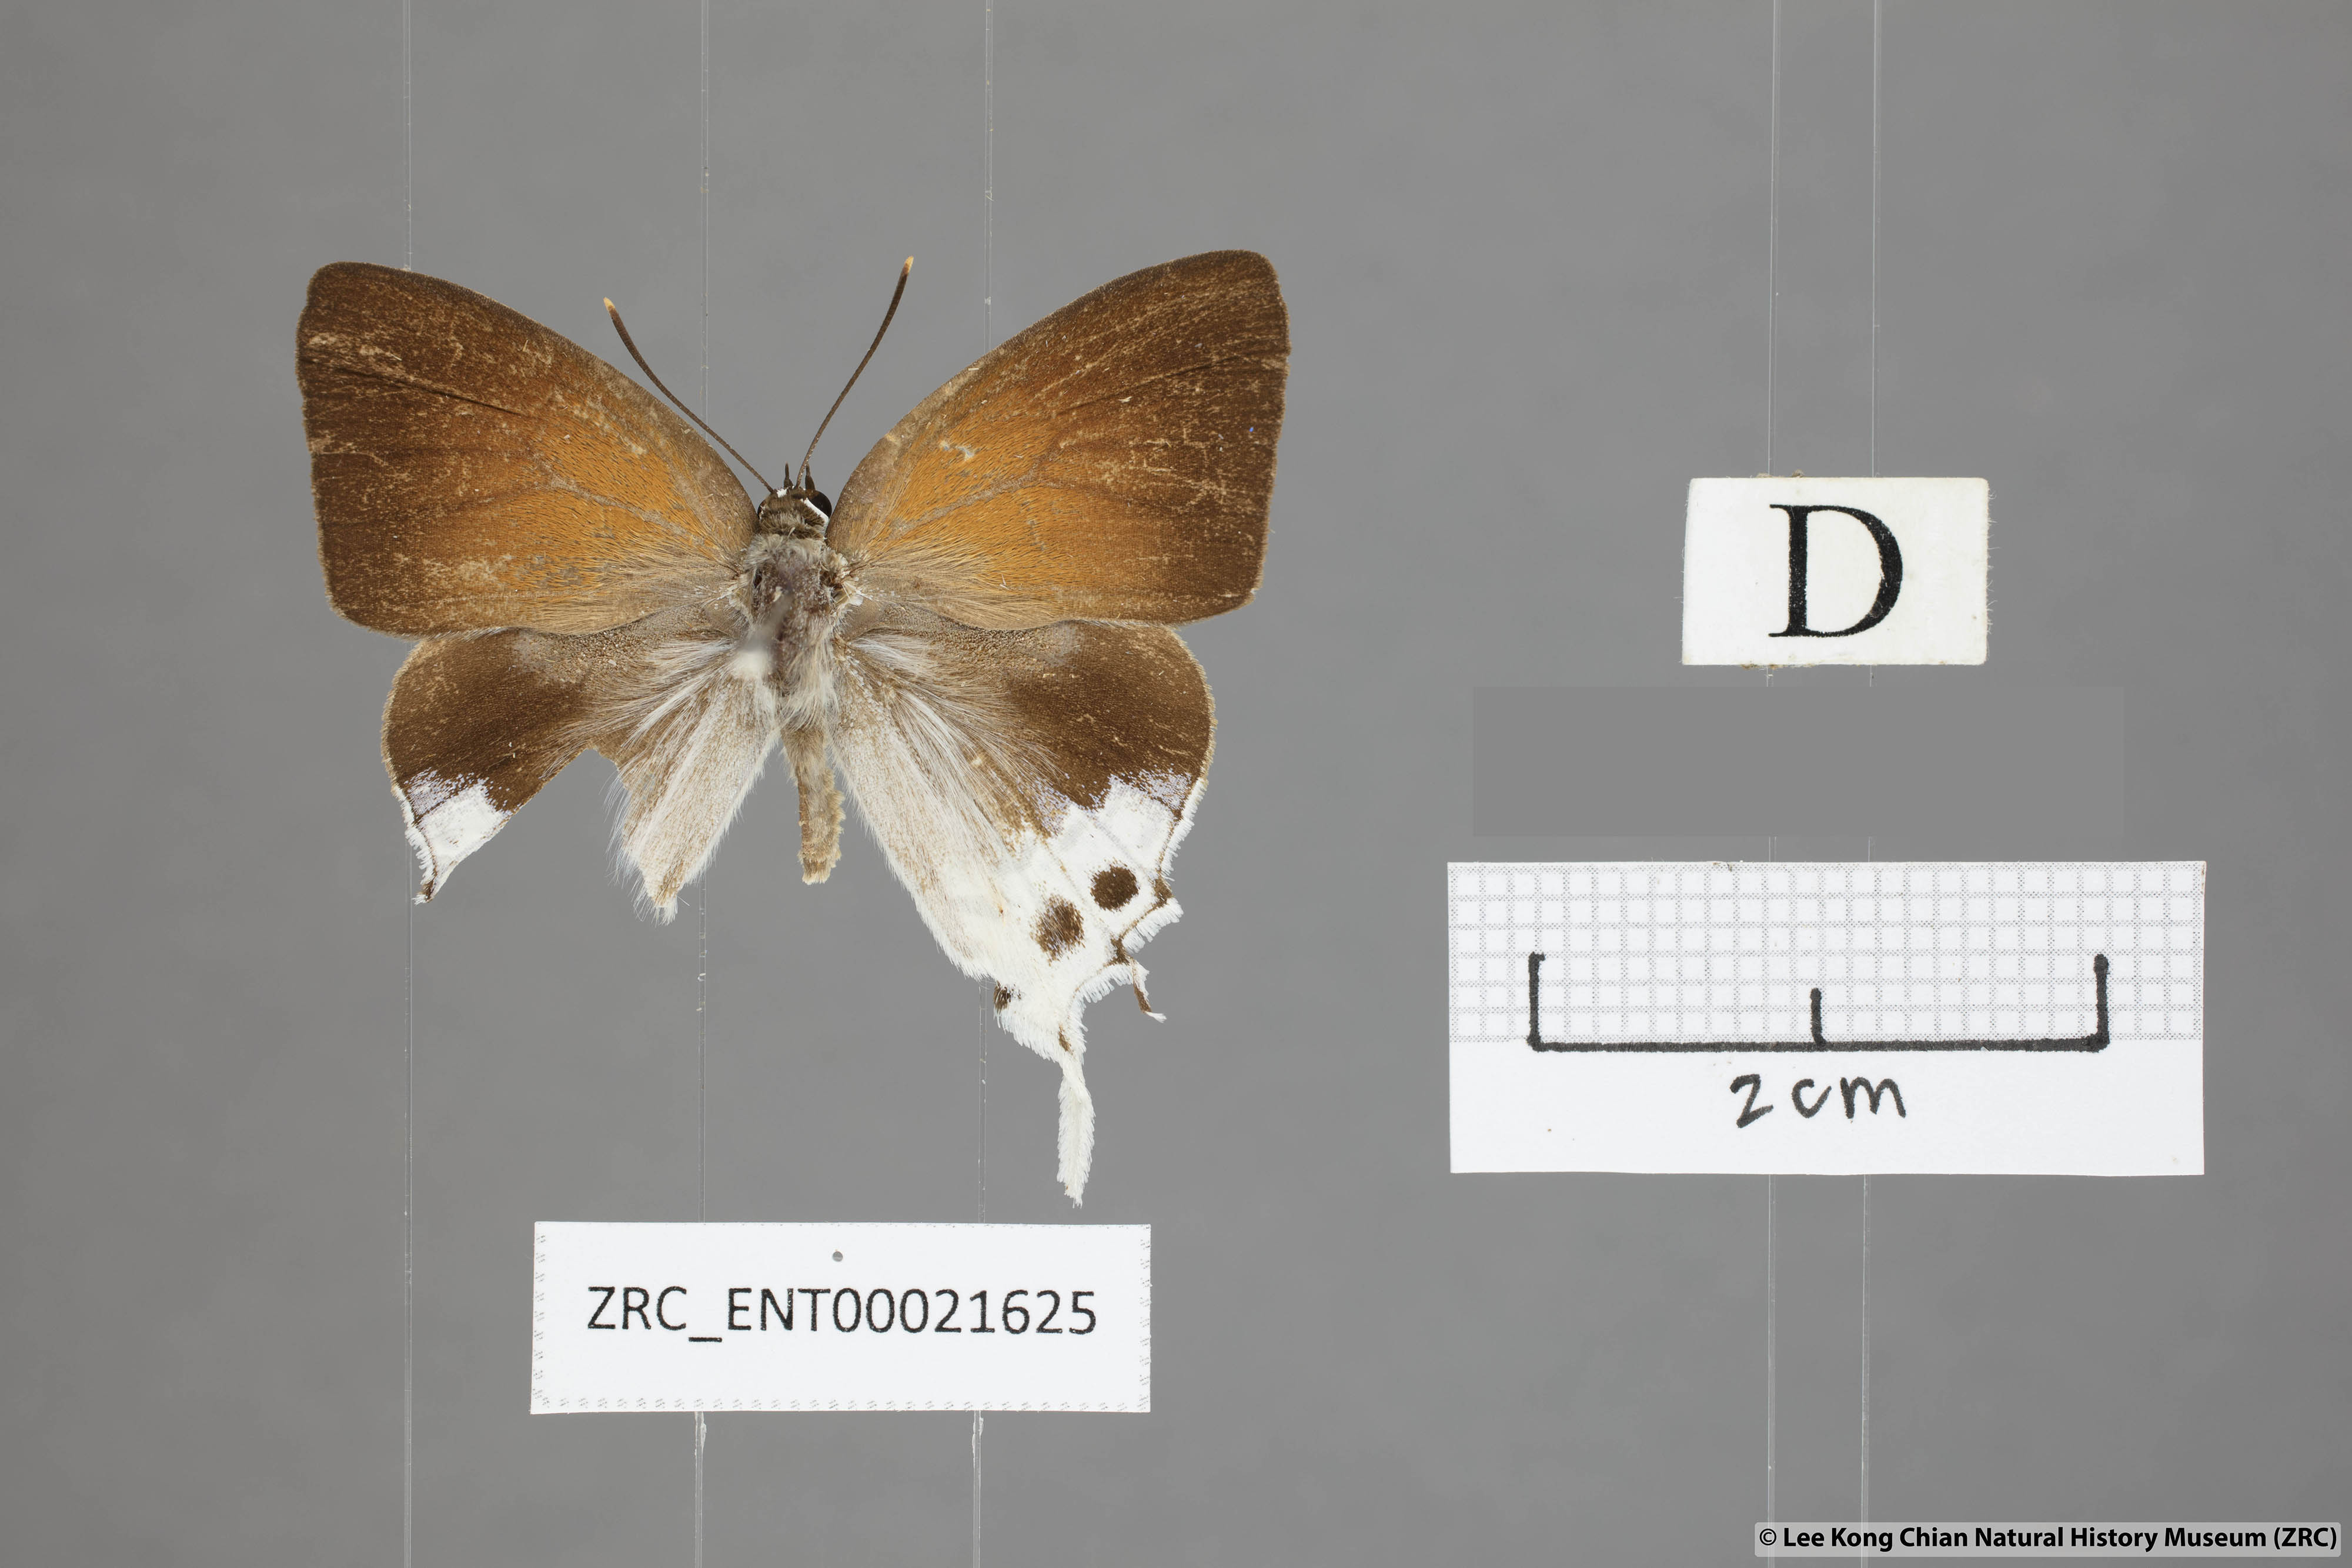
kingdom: Animalia
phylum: Arthropoda
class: Insecta
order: Lepidoptera
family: Lycaenidae
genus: Mantoides
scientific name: Mantoides gama
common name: Distant's imperial
